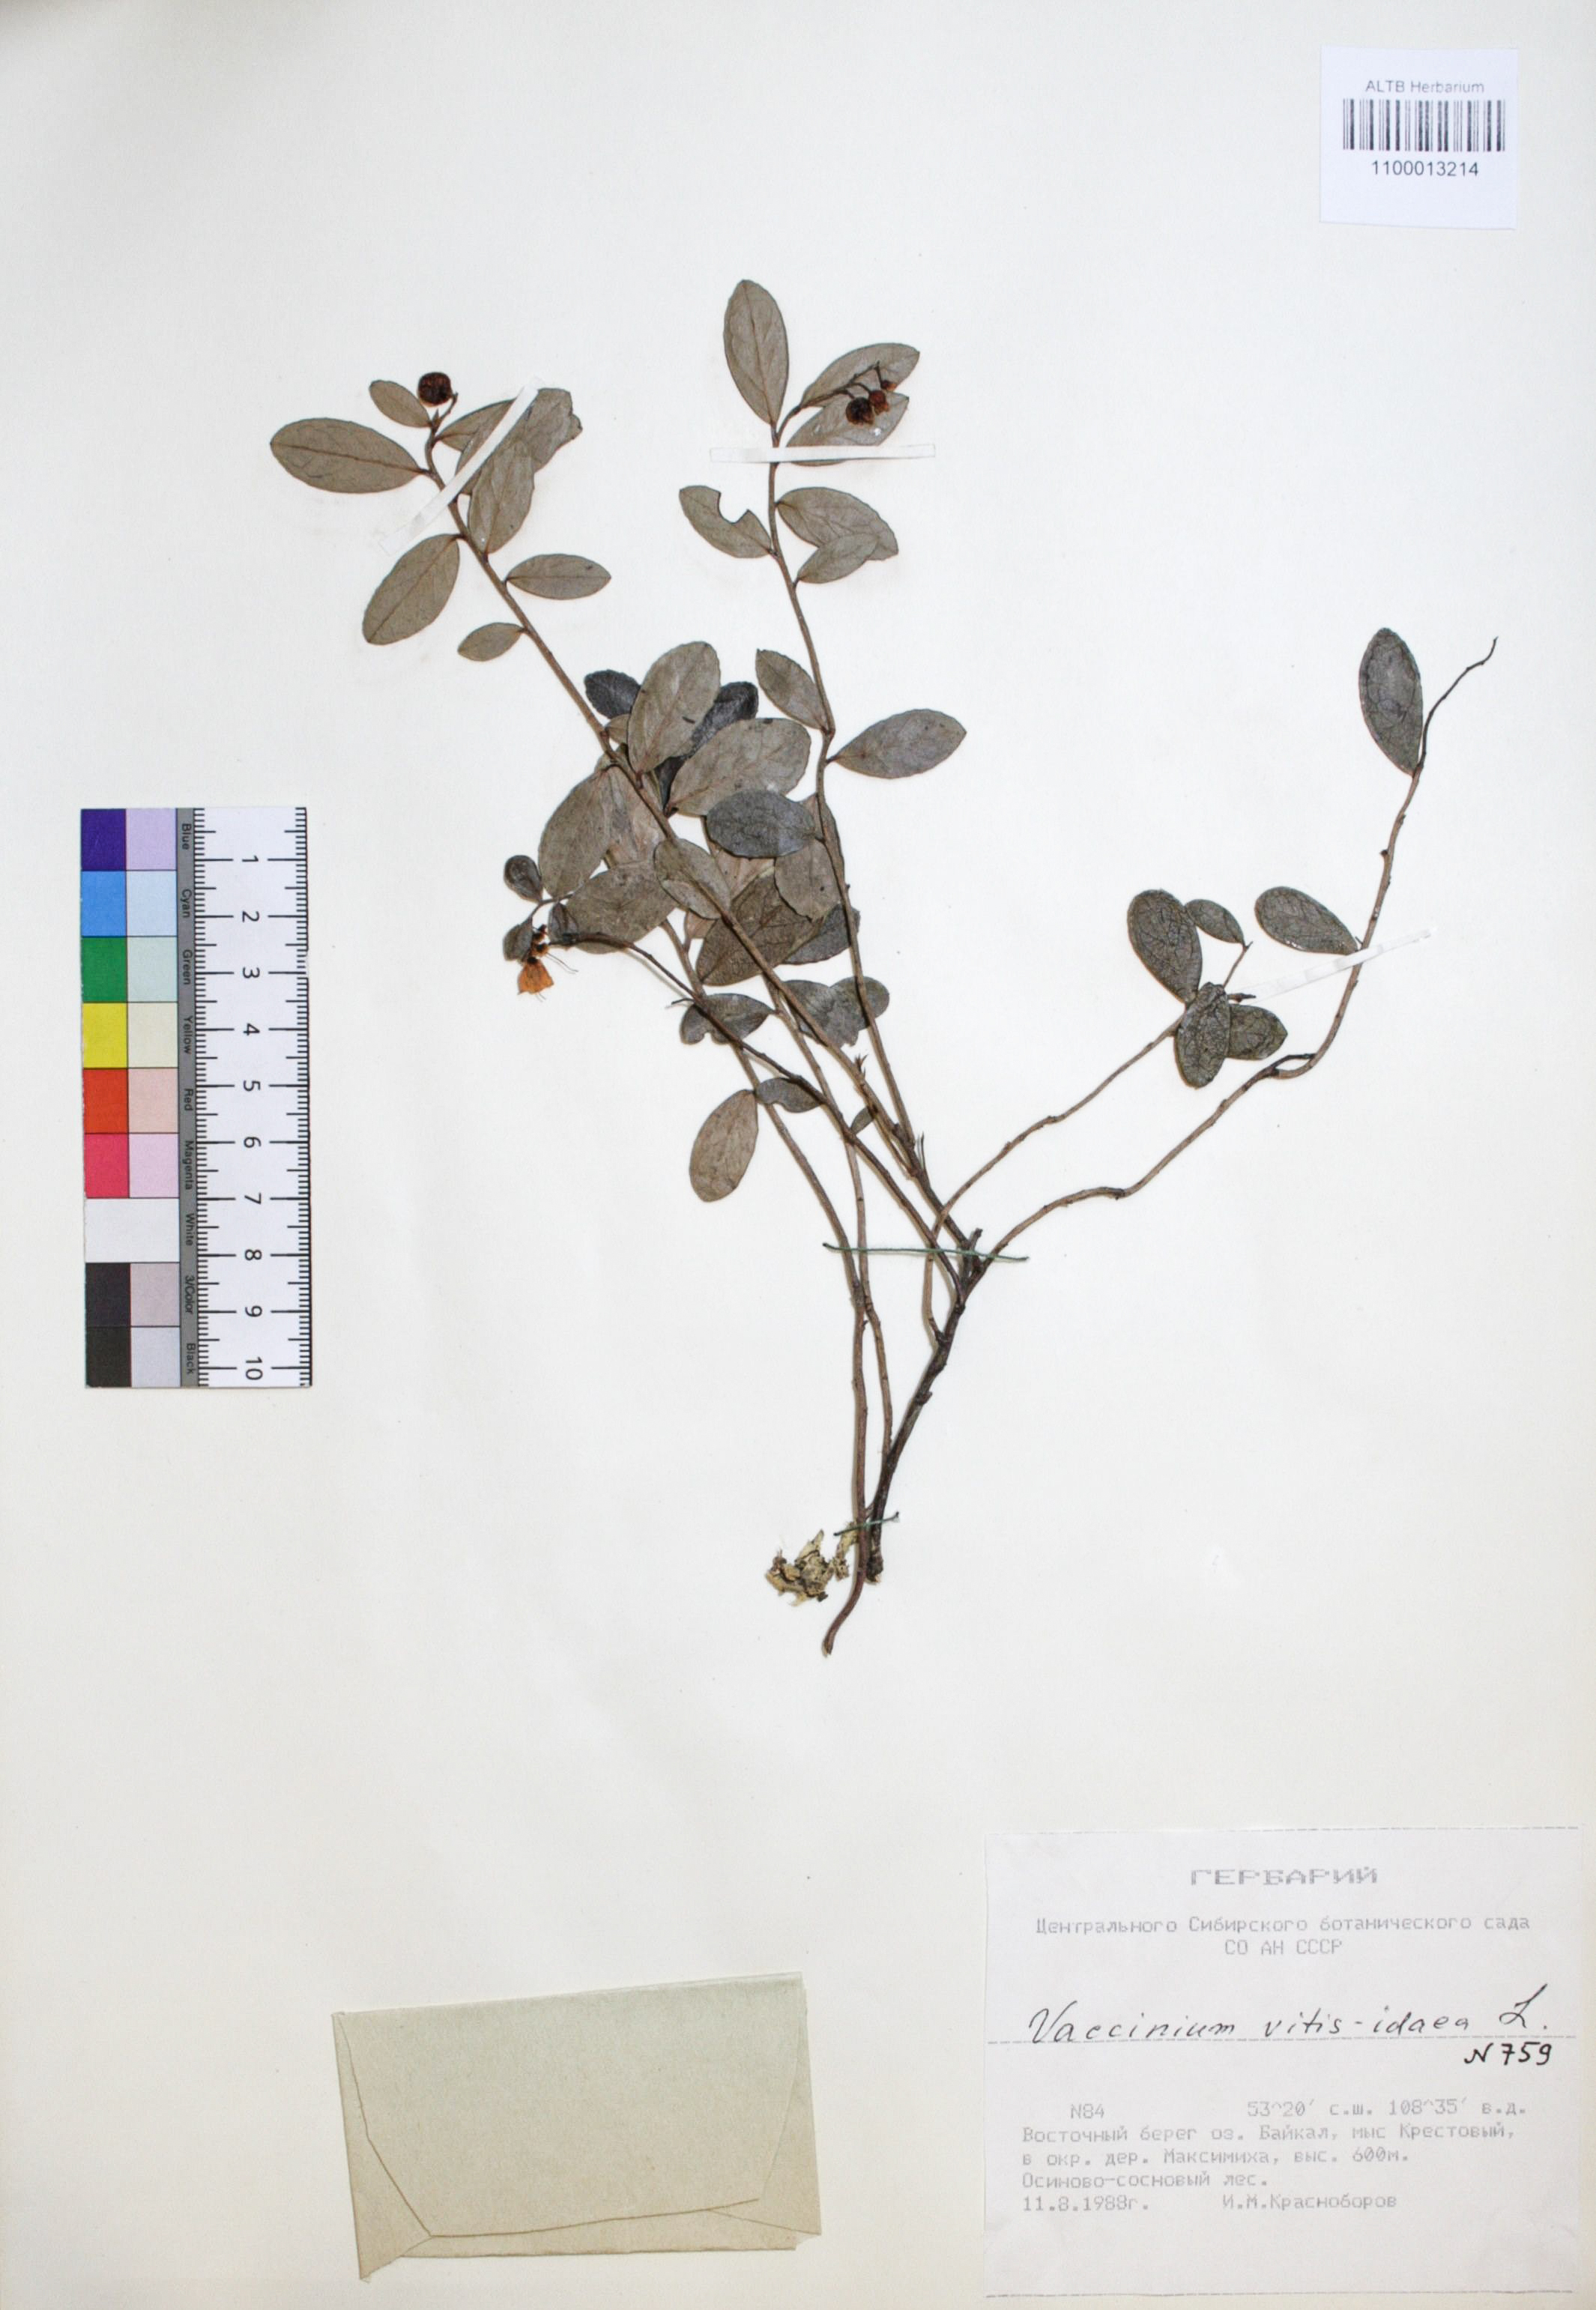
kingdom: Plantae
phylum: Tracheophyta
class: Magnoliopsida
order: Ericales
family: Ericaceae
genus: Vaccinium
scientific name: Vaccinium vitis-idaea
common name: Cowberry
